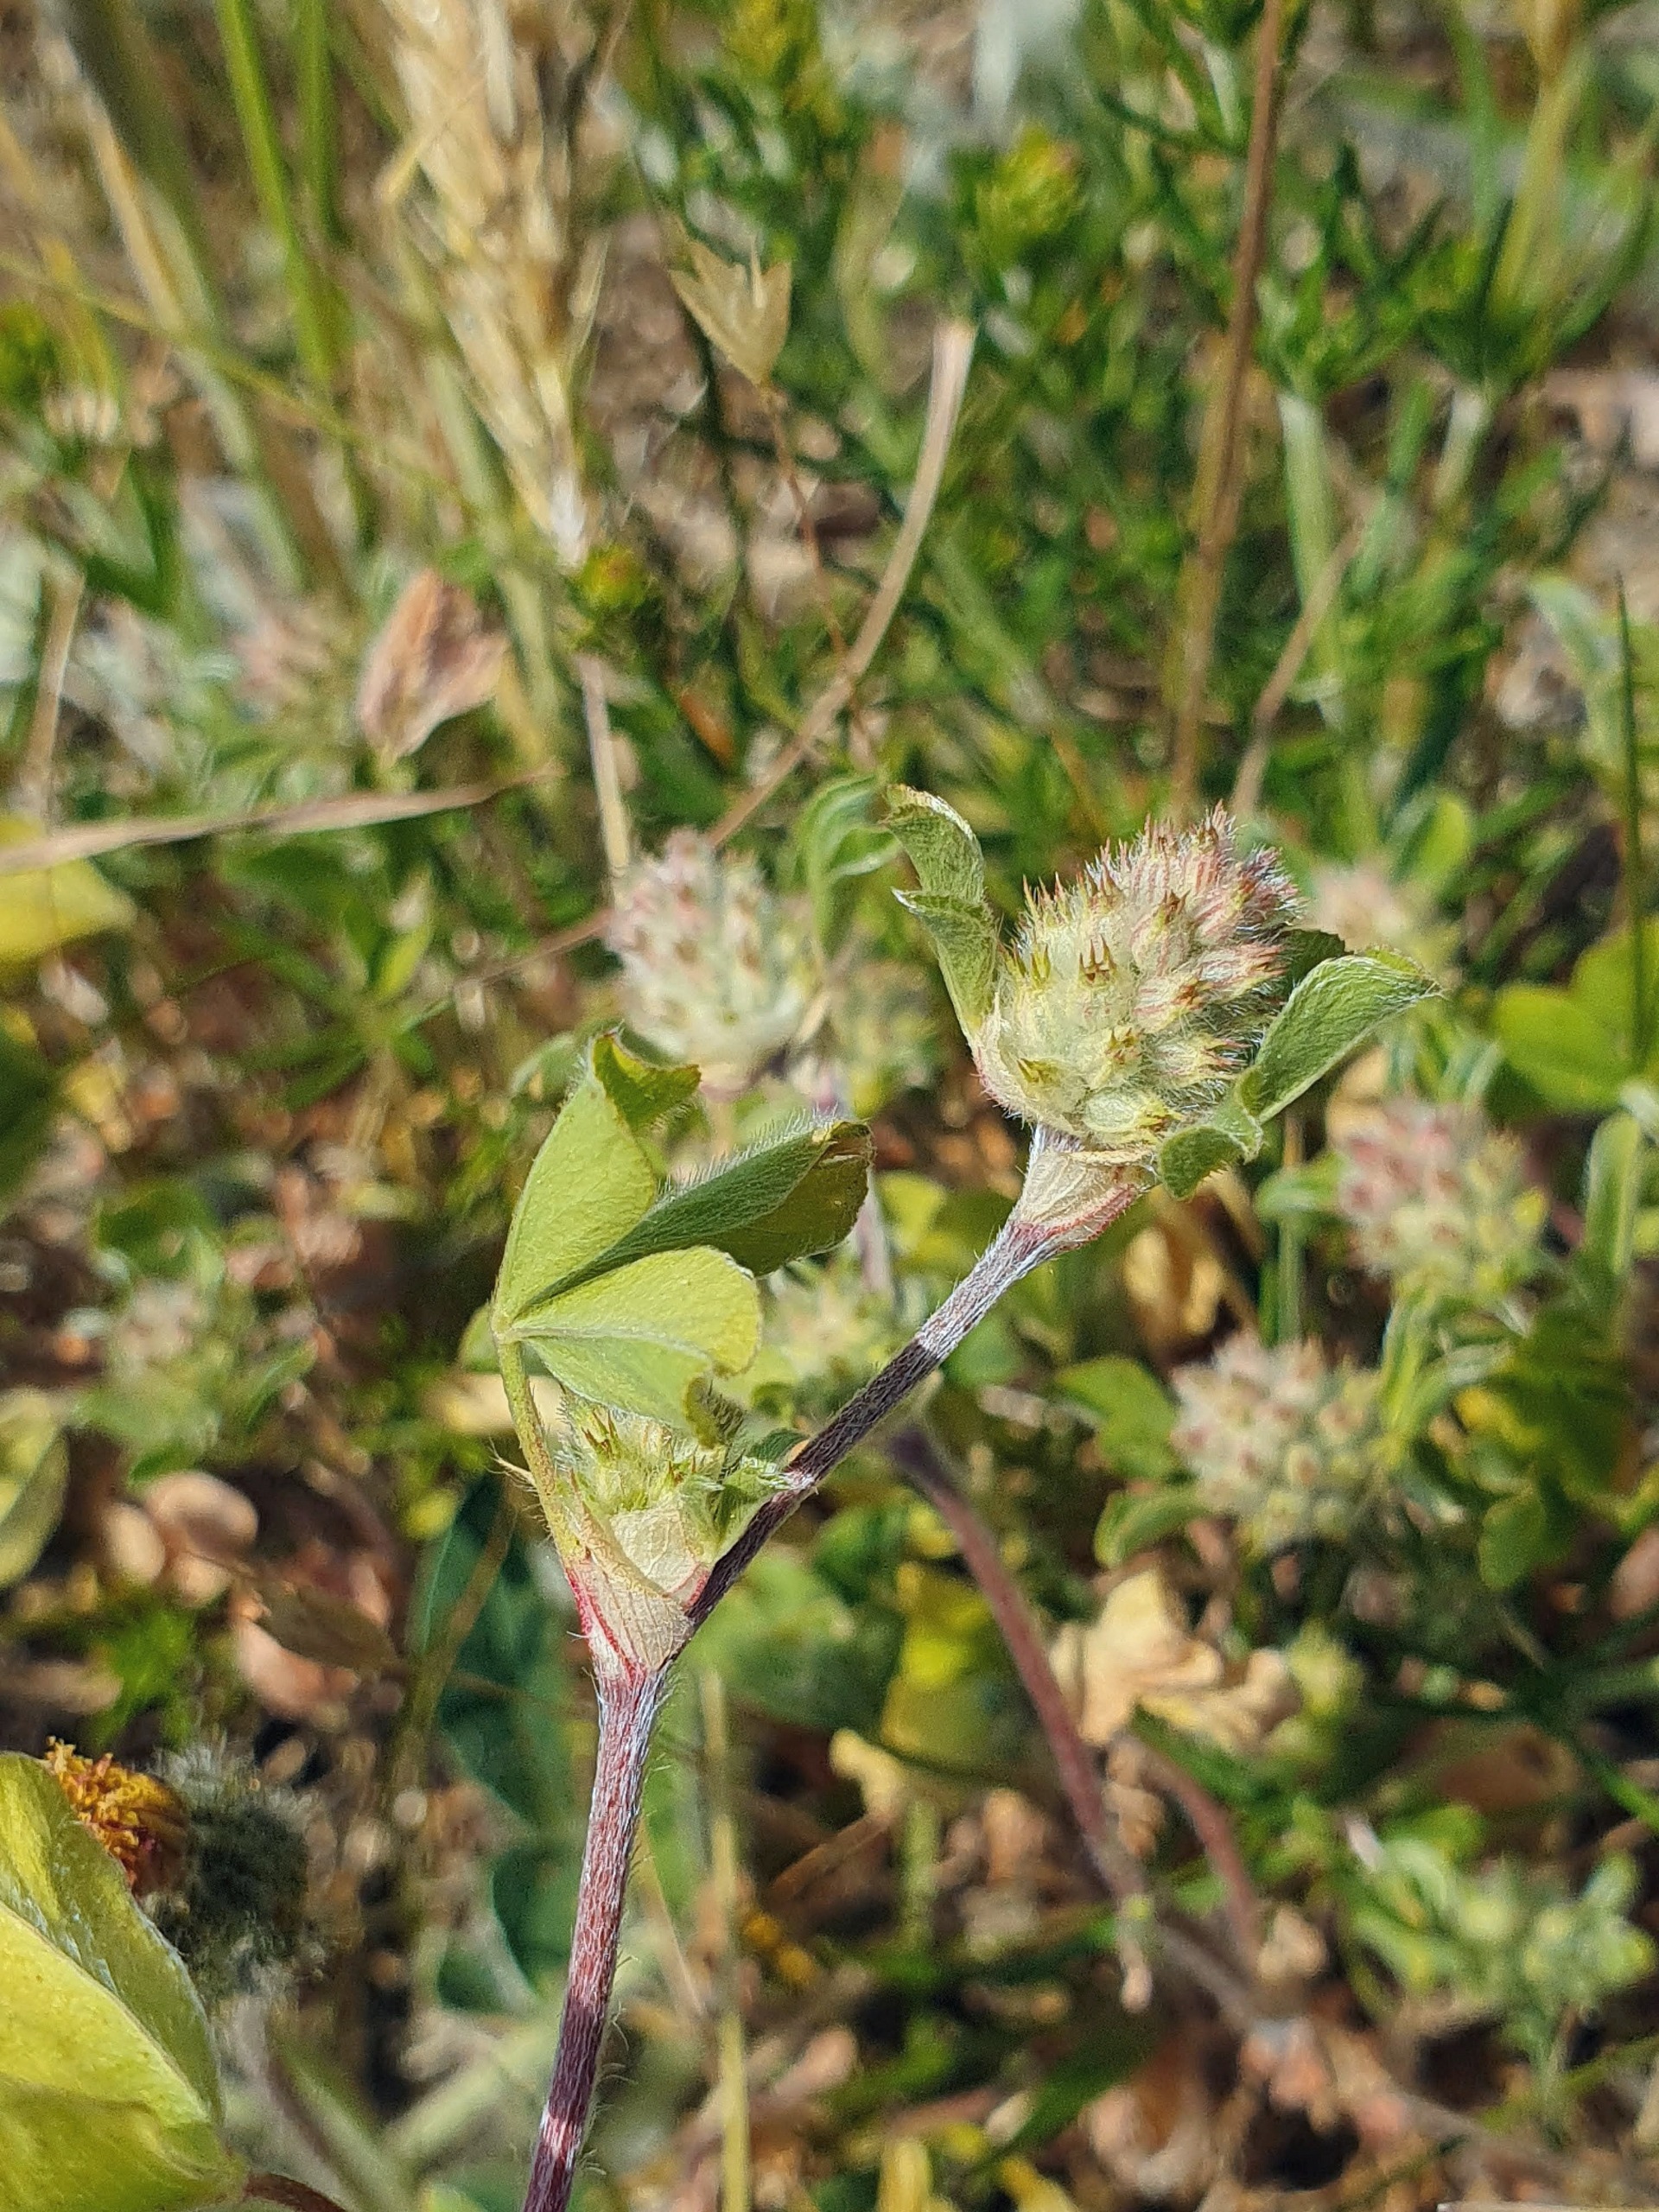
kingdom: Plantae
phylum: Tracheophyta
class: Magnoliopsida
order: Fabales
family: Fabaceae
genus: Trifolium
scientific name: Trifolium striatum
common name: Stribet kløver
